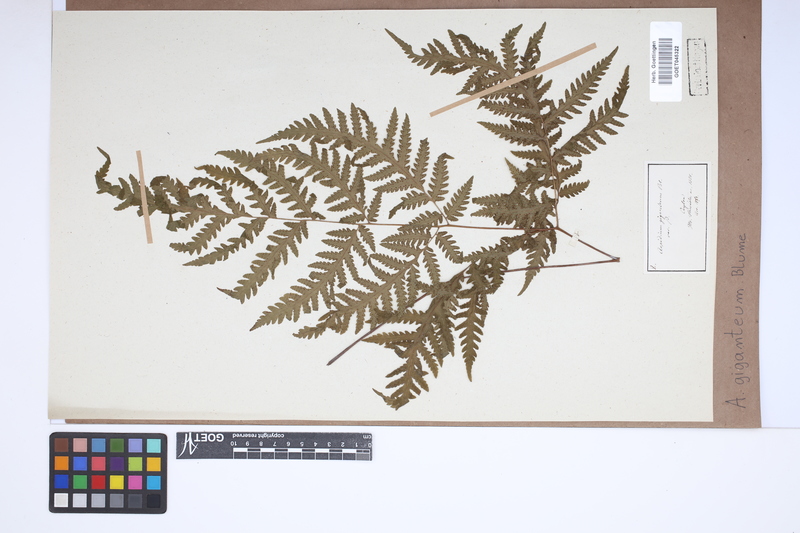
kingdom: Plantae
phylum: Tracheophyta
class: Polypodiopsida
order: Polypodiales
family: Tectariaceae
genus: Tectaria
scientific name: Tectaria gigantea
